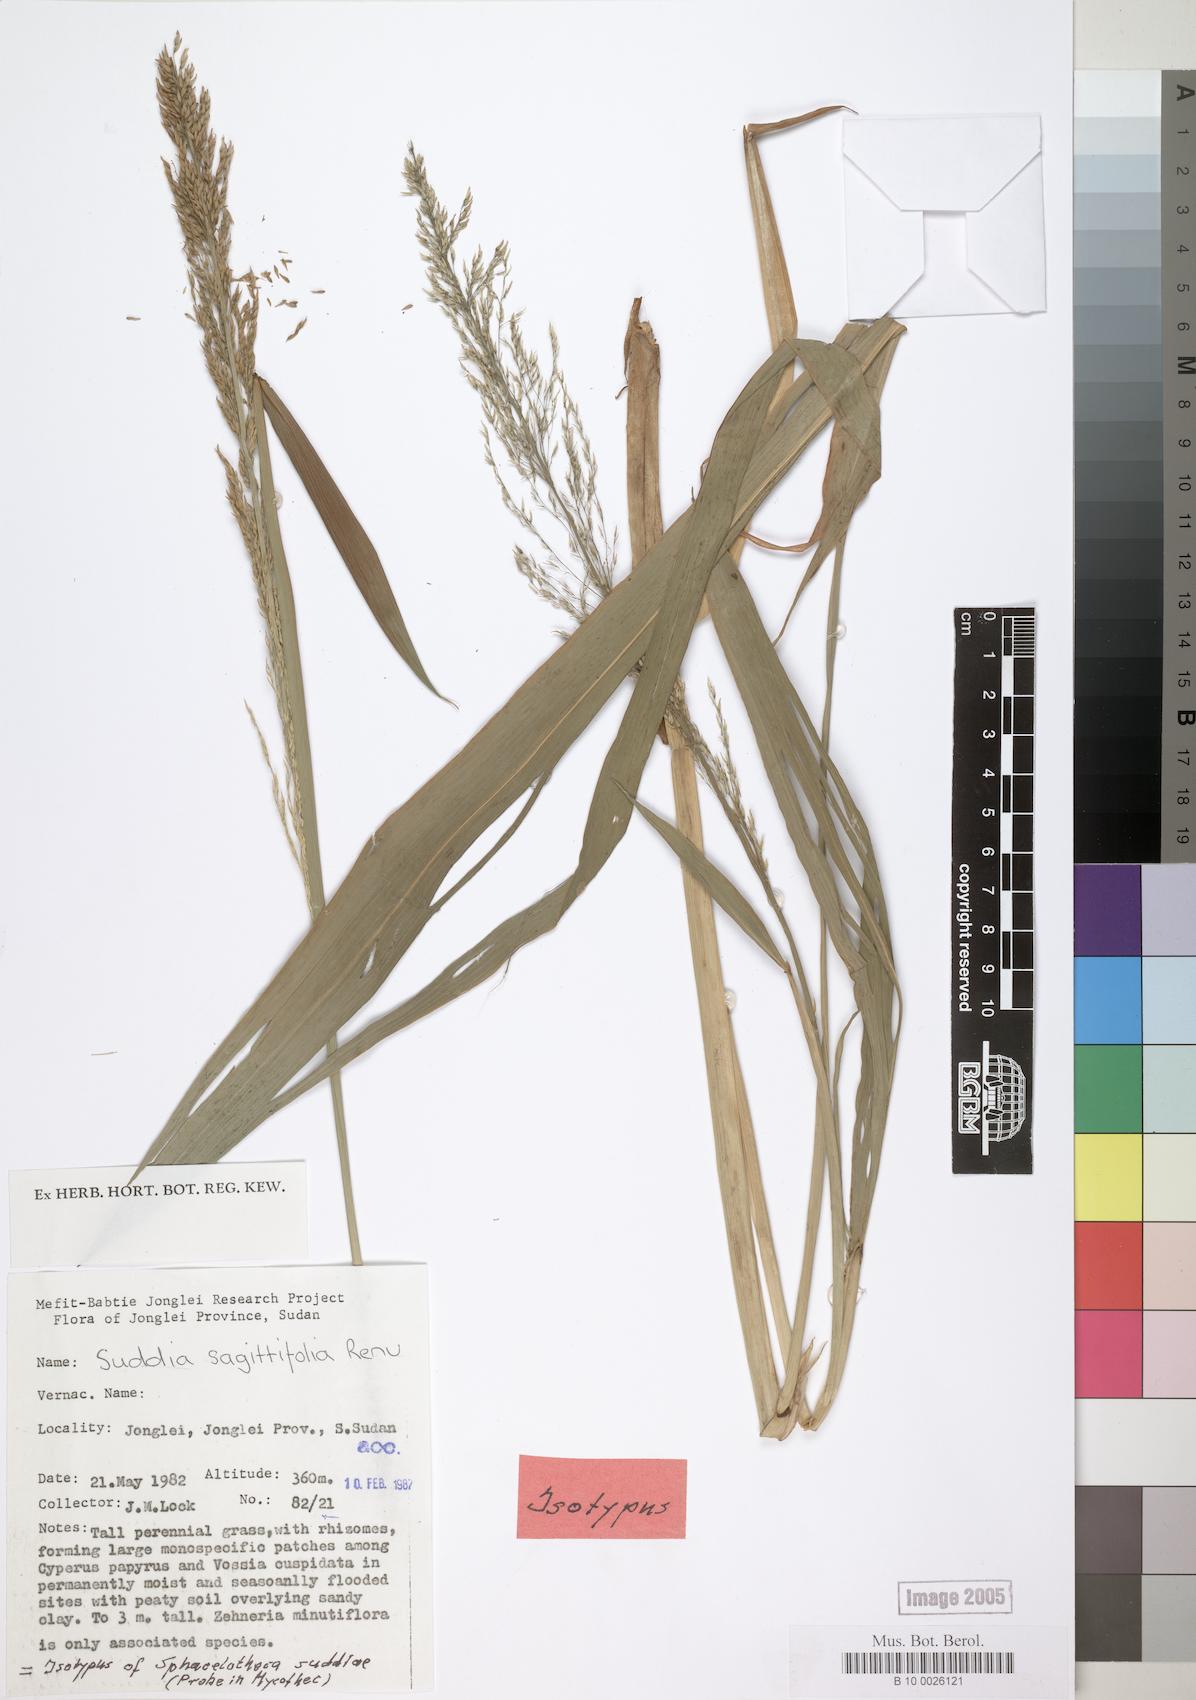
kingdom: Plantae
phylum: Tracheophyta
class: Liliopsida
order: Poales
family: Poaceae
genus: Suddia
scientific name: Suddia sagittifolia
